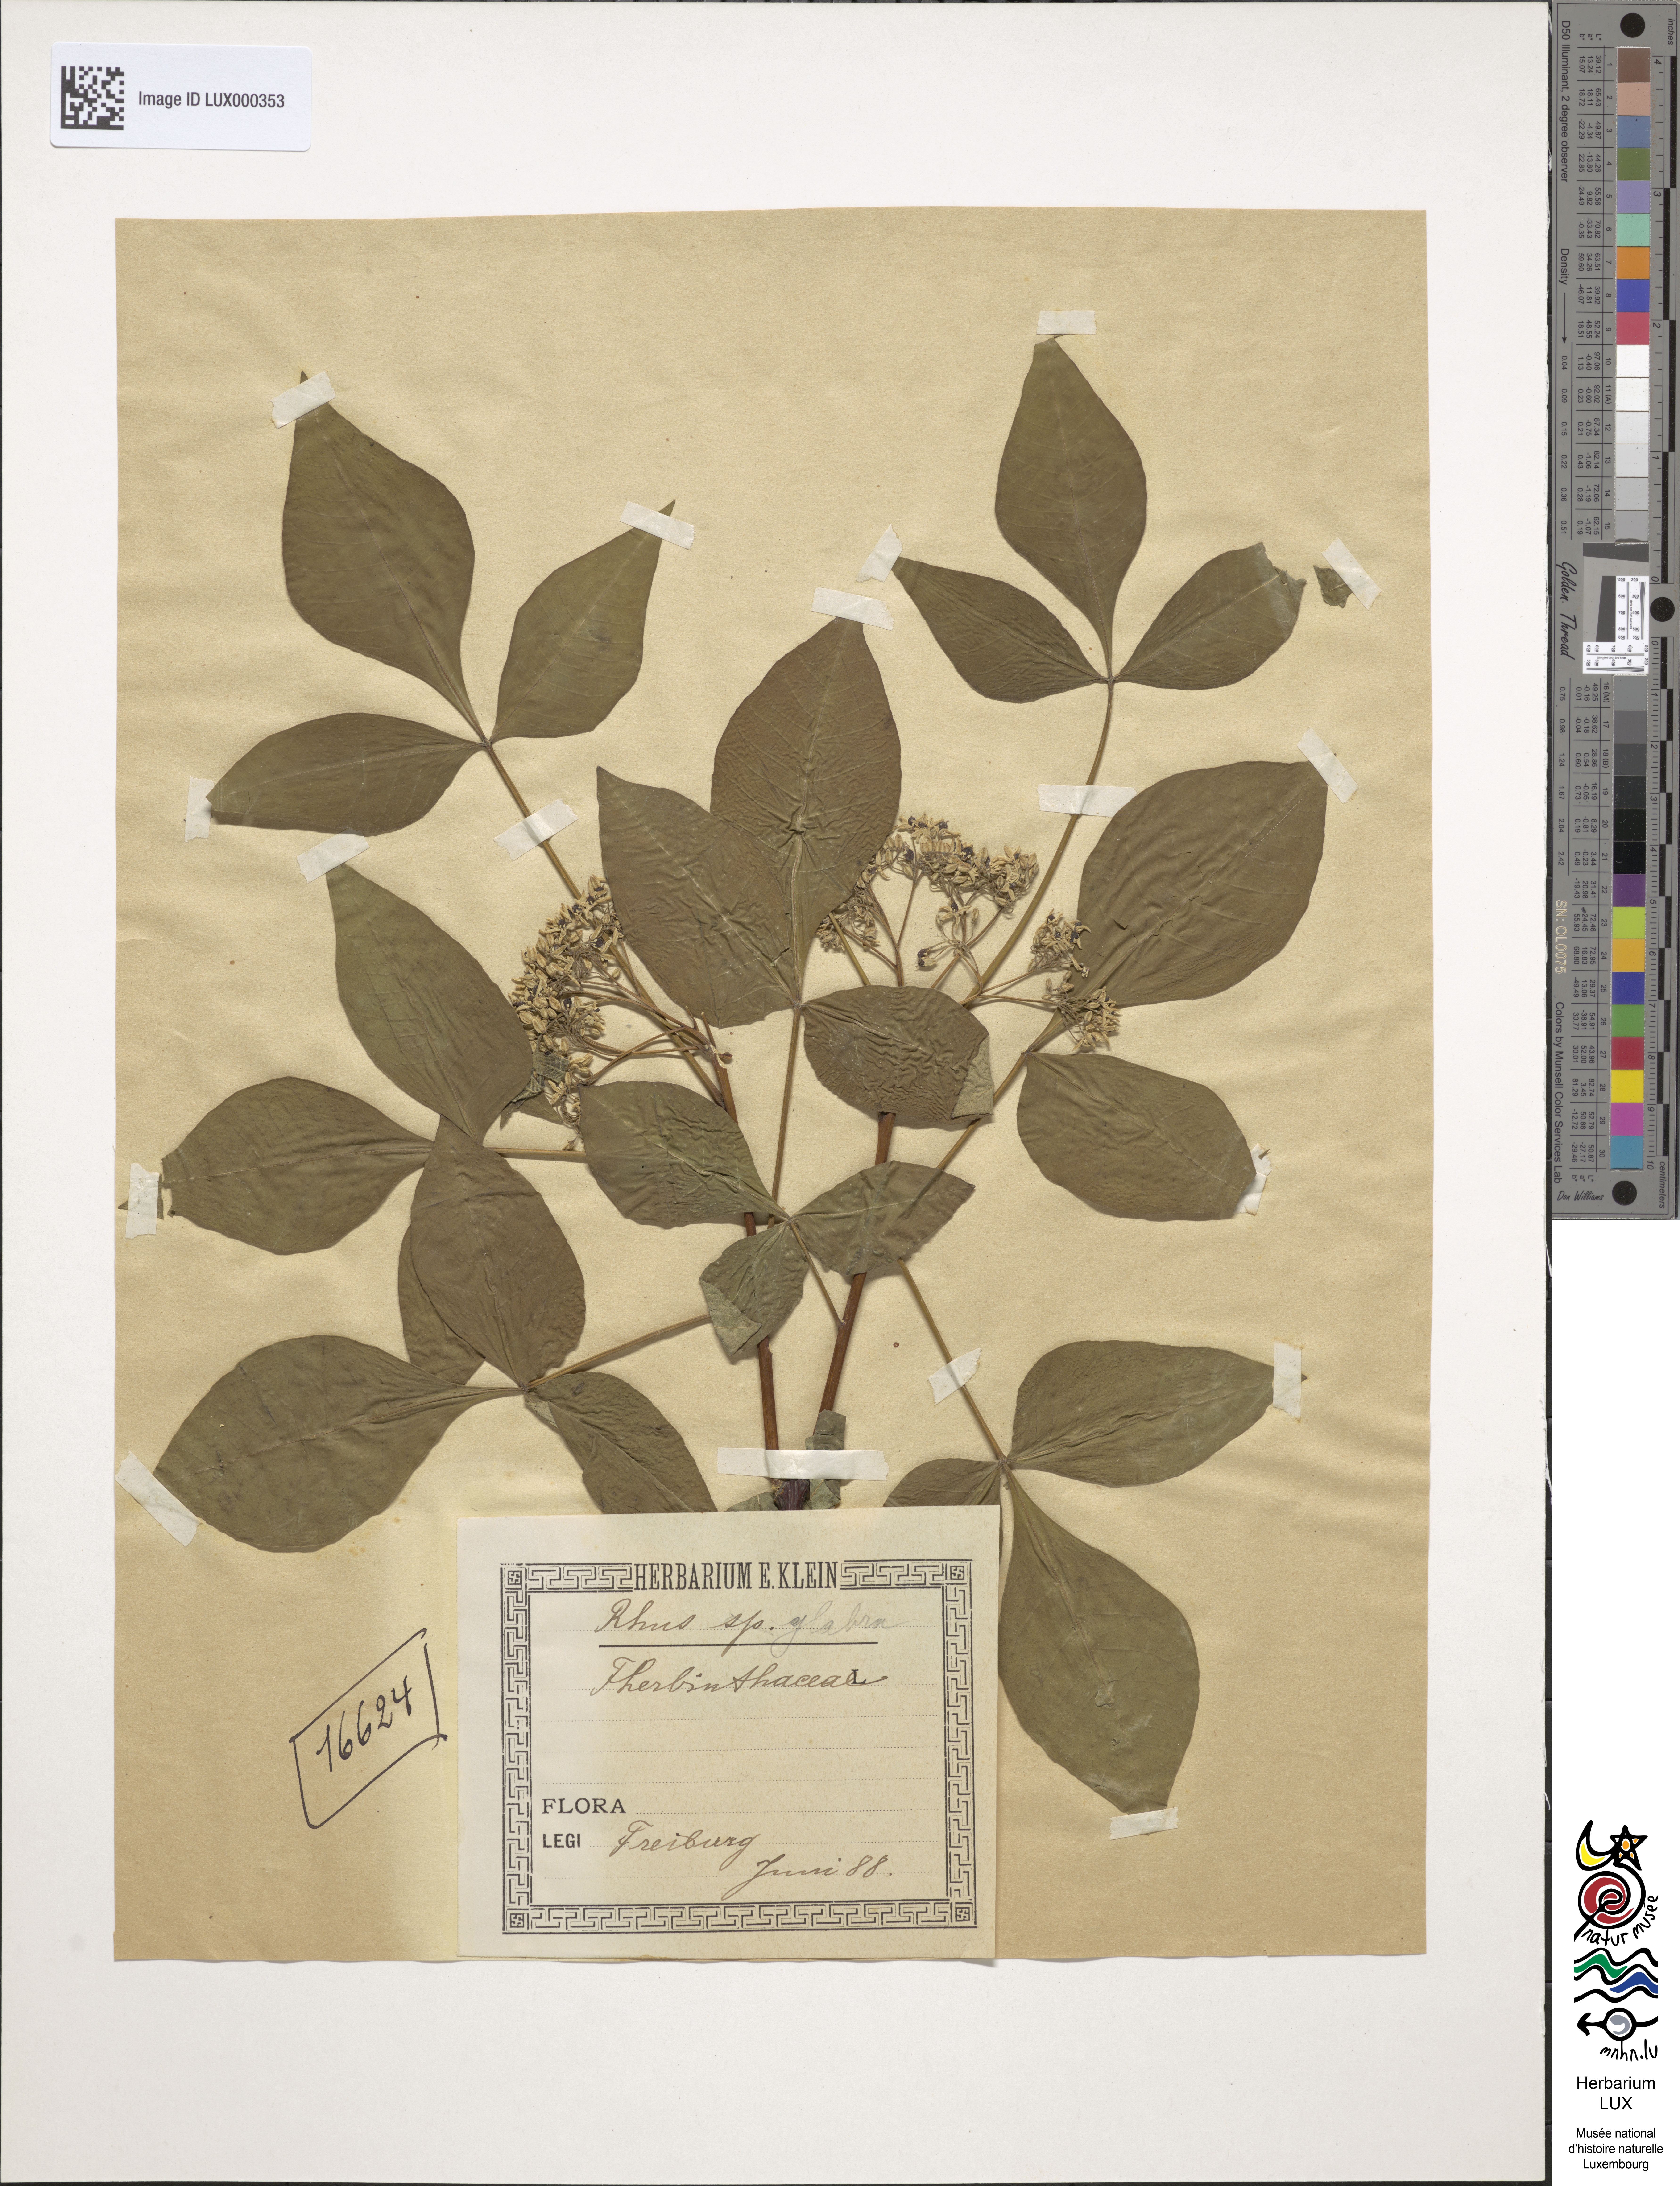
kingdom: Plantae
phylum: Tracheophyta
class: Magnoliopsida
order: Sapindales
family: Anacardiaceae
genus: Rhus
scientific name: Rhus glabra
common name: Scarlet sumac
